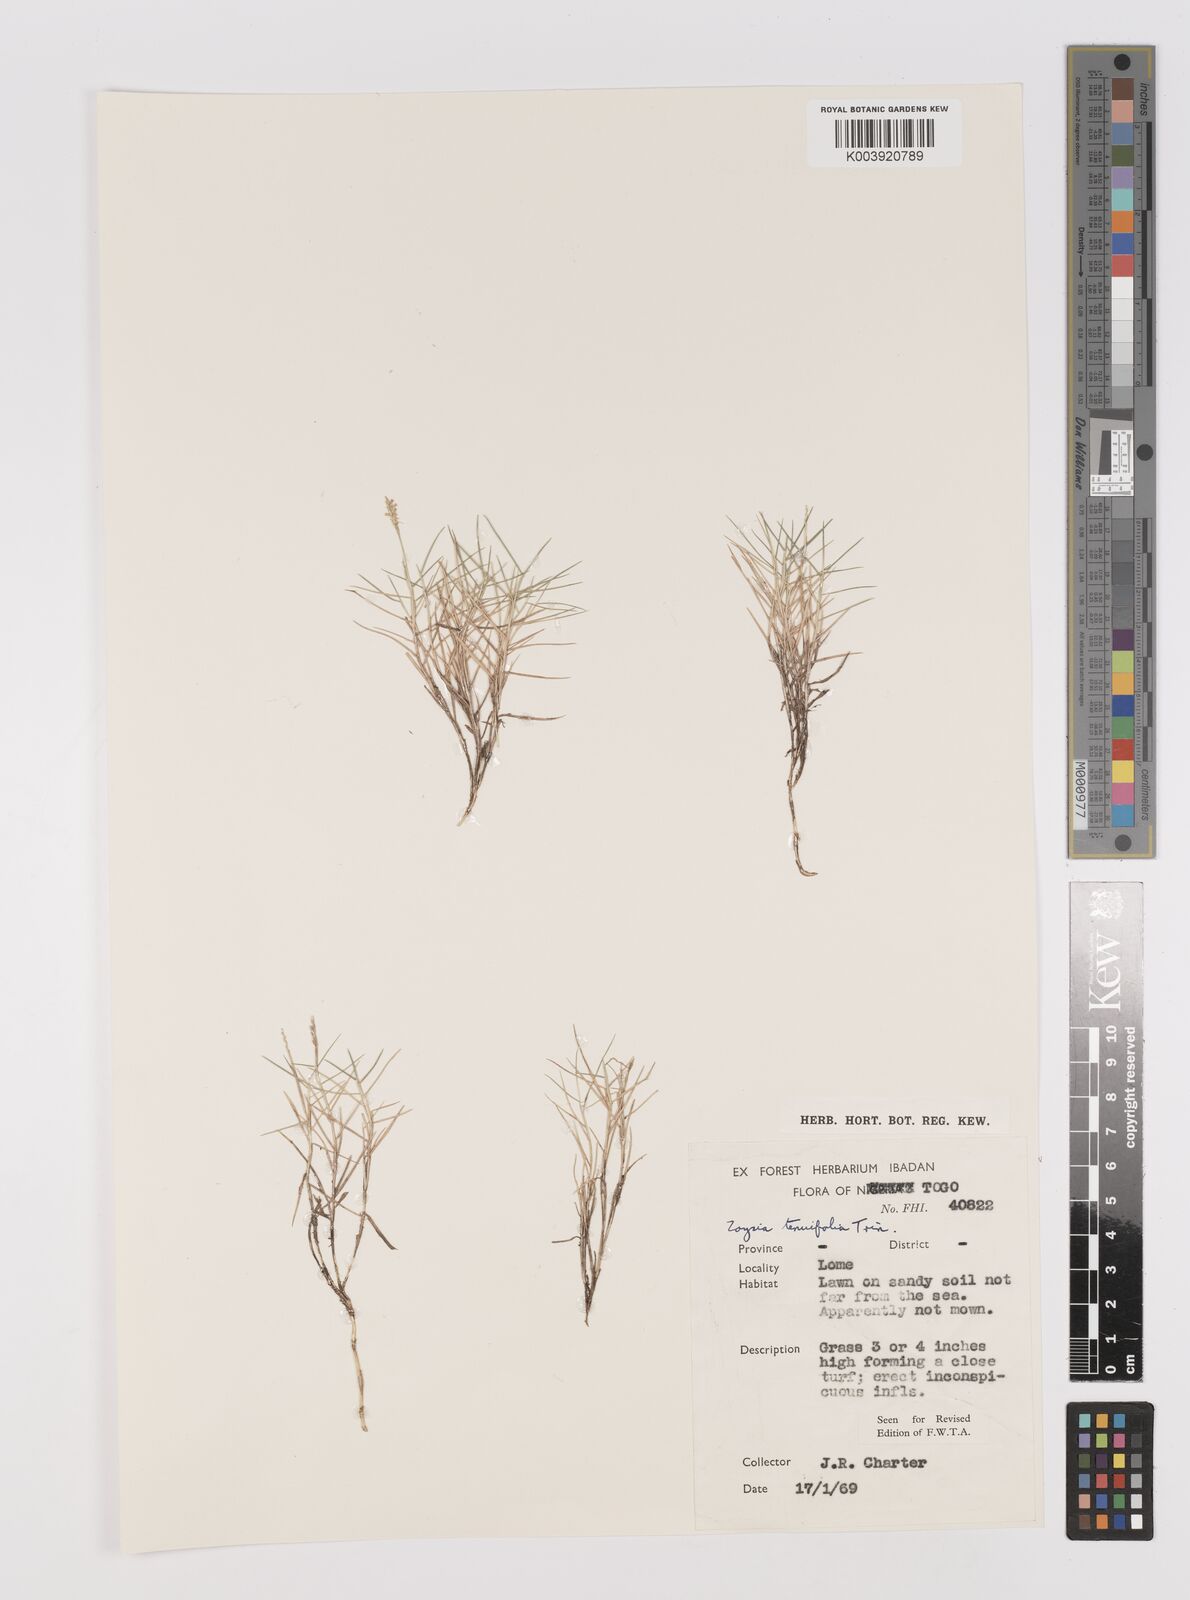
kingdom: Plantae
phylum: Tracheophyta
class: Liliopsida
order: Poales
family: Poaceae
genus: Zoysia
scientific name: Zoysia matrella
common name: Manila grass
